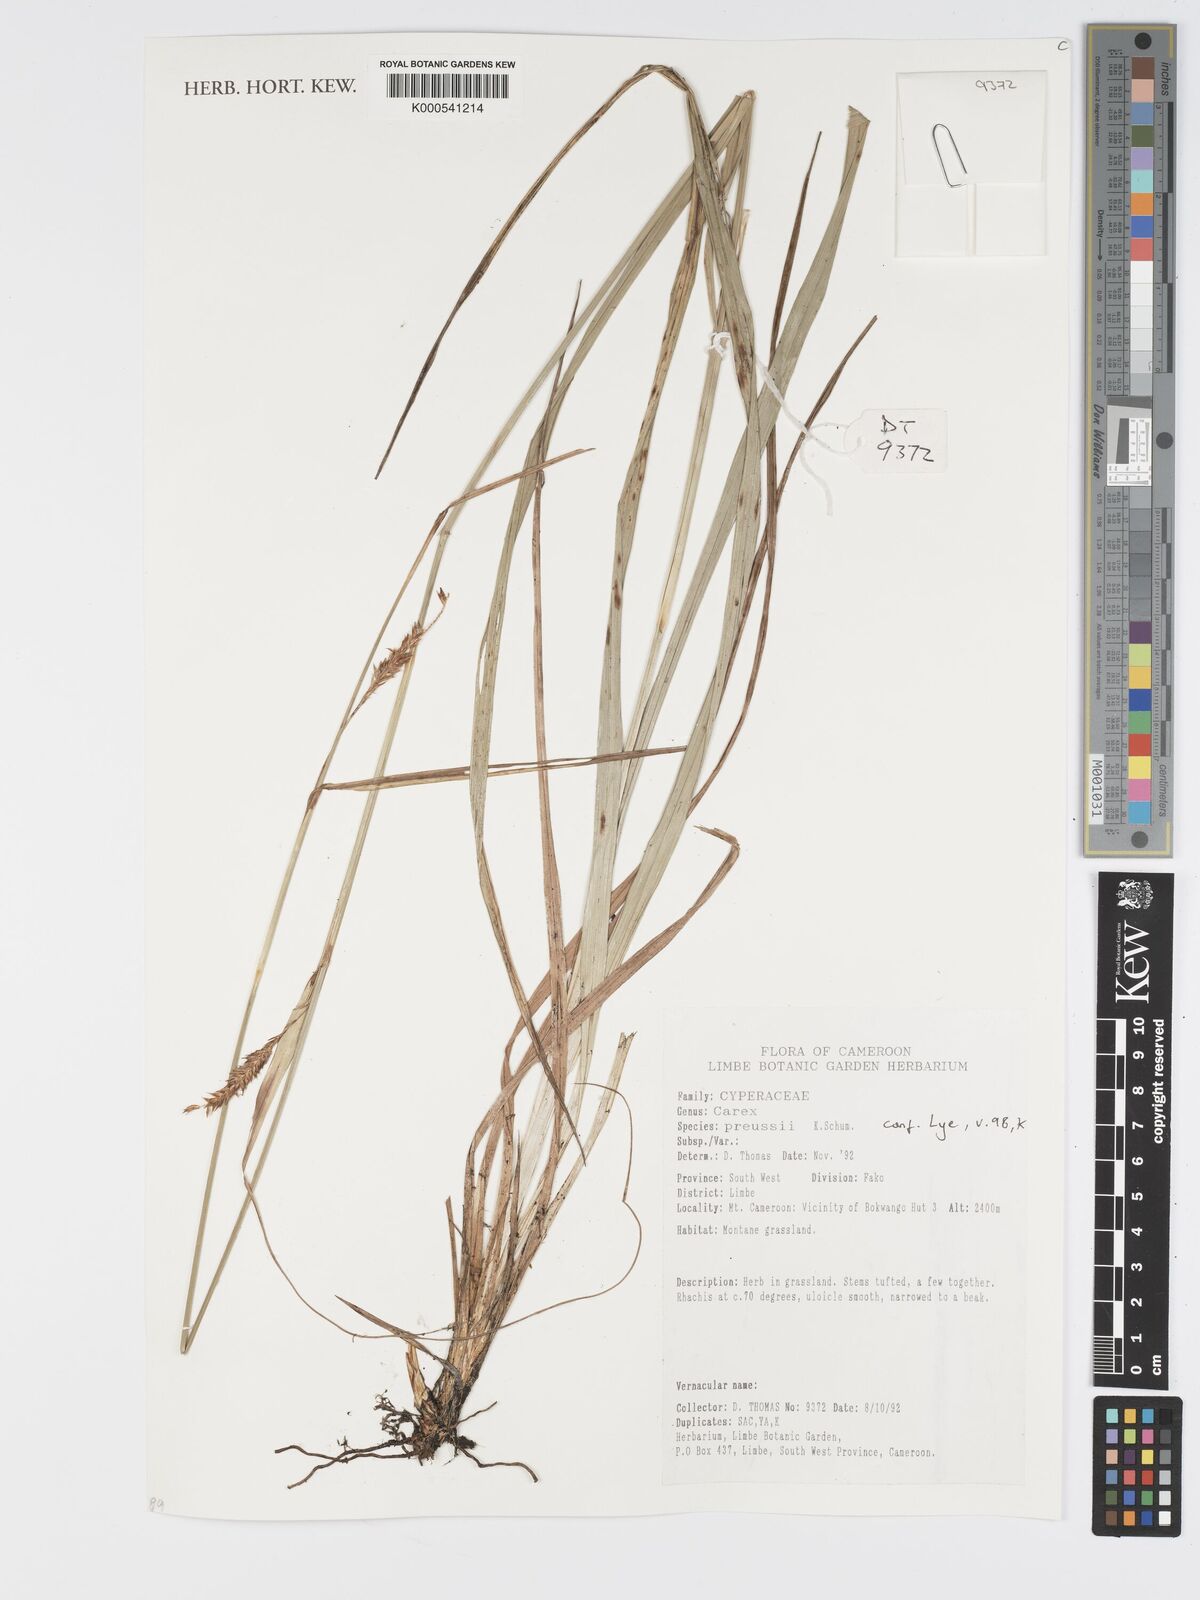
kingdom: Plantae
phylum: Tracheophyta
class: Liliopsida
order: Poales
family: Cyperaceae
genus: Carex
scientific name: Carex petitiana
